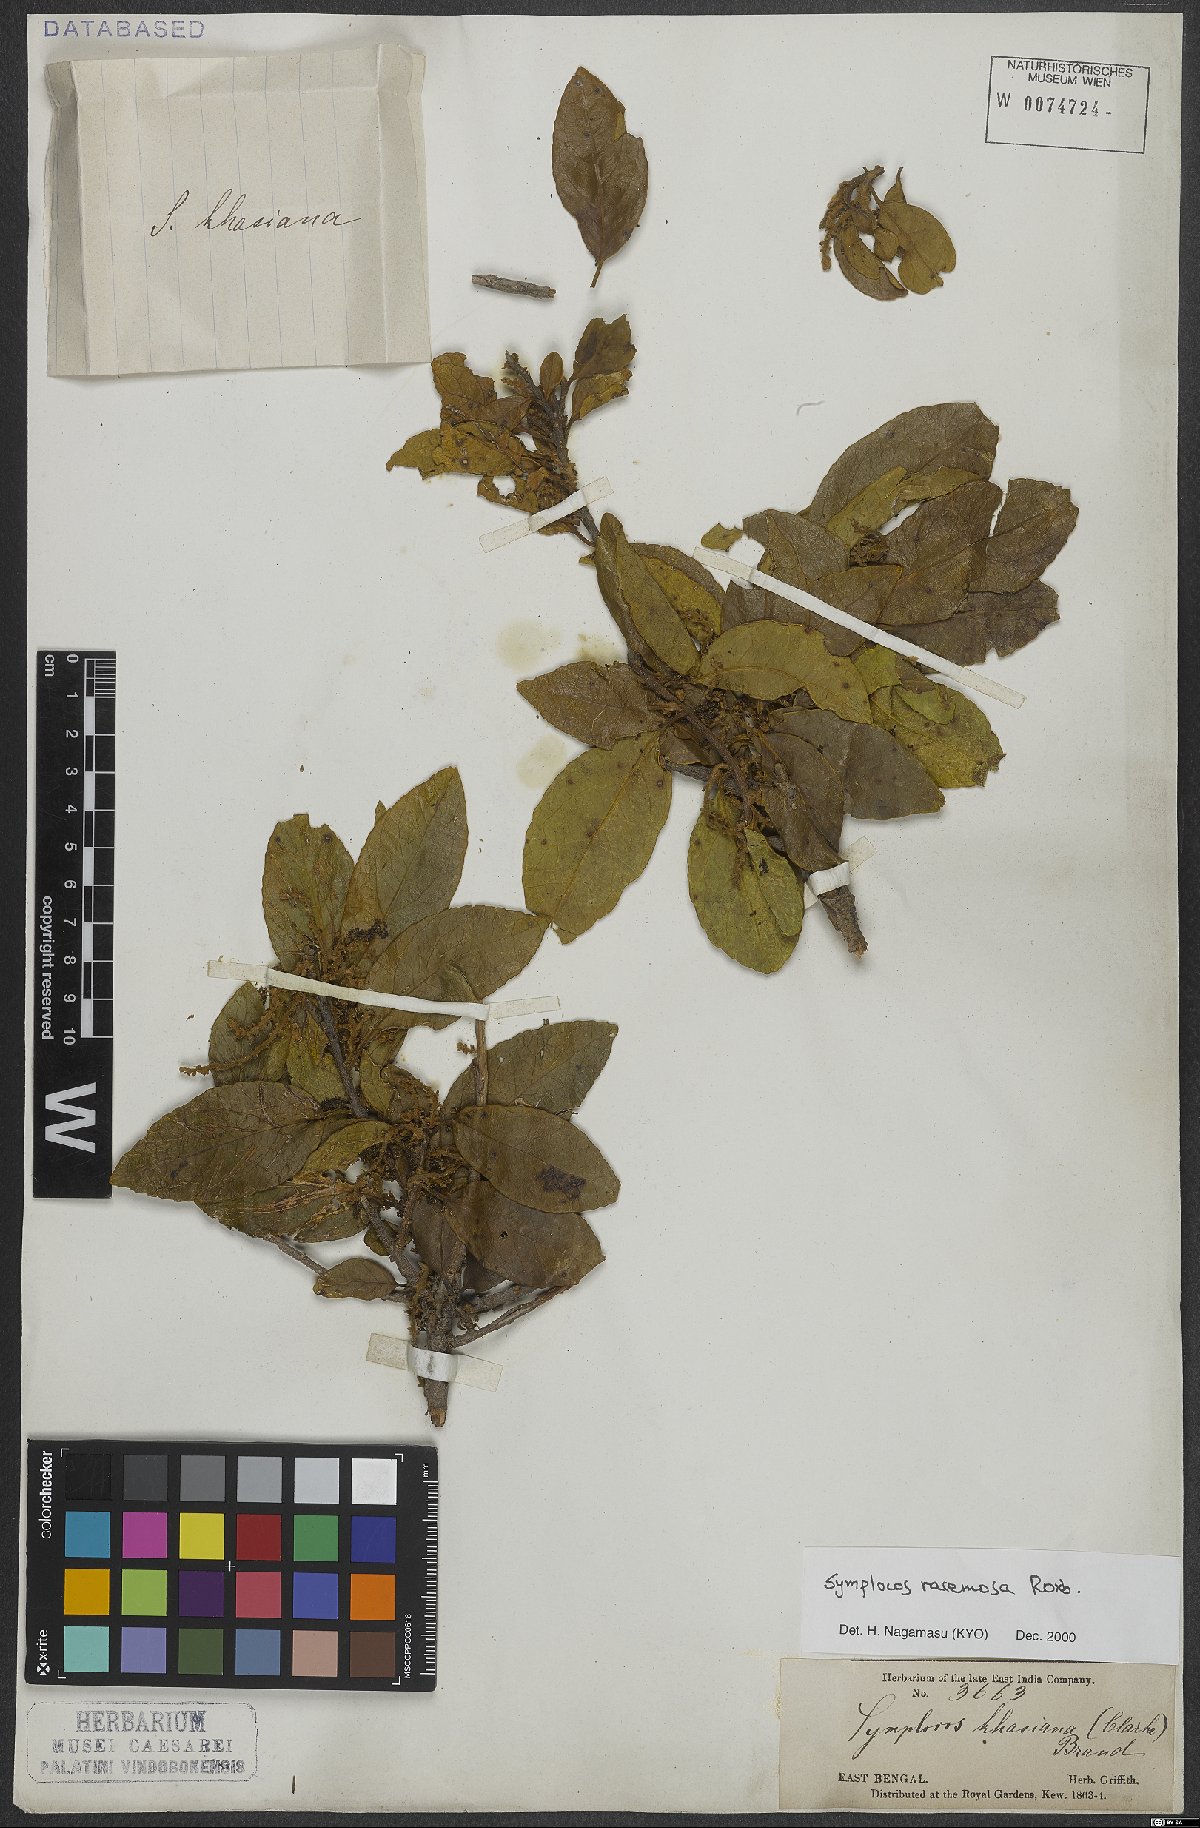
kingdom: Plantae
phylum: Tracheophyta
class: Magnoliopsida
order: Ericales
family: Symplocaceae
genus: Symplocos
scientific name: Symplocos racemosa
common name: Lodhtree
